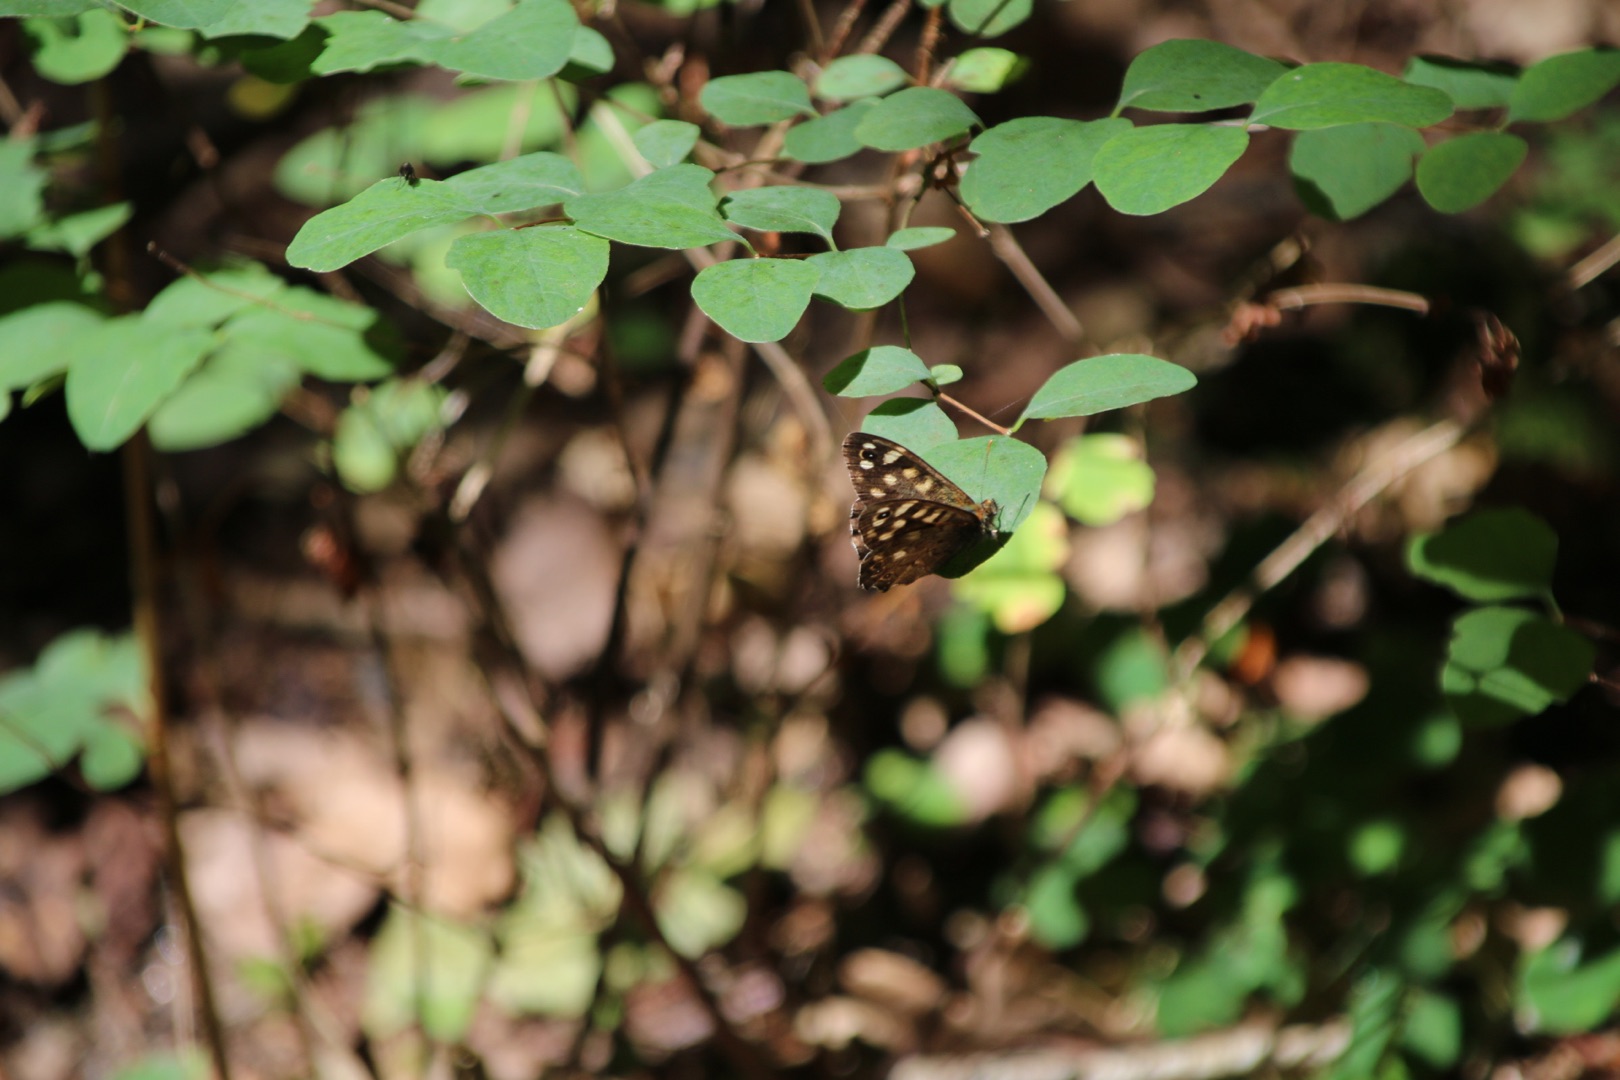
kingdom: Animalia
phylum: Arthropoda
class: Insecta
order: Lepidoptera
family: Nymphalidae
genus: Pararge
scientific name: Pararge aegeria
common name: Skovrandøje
